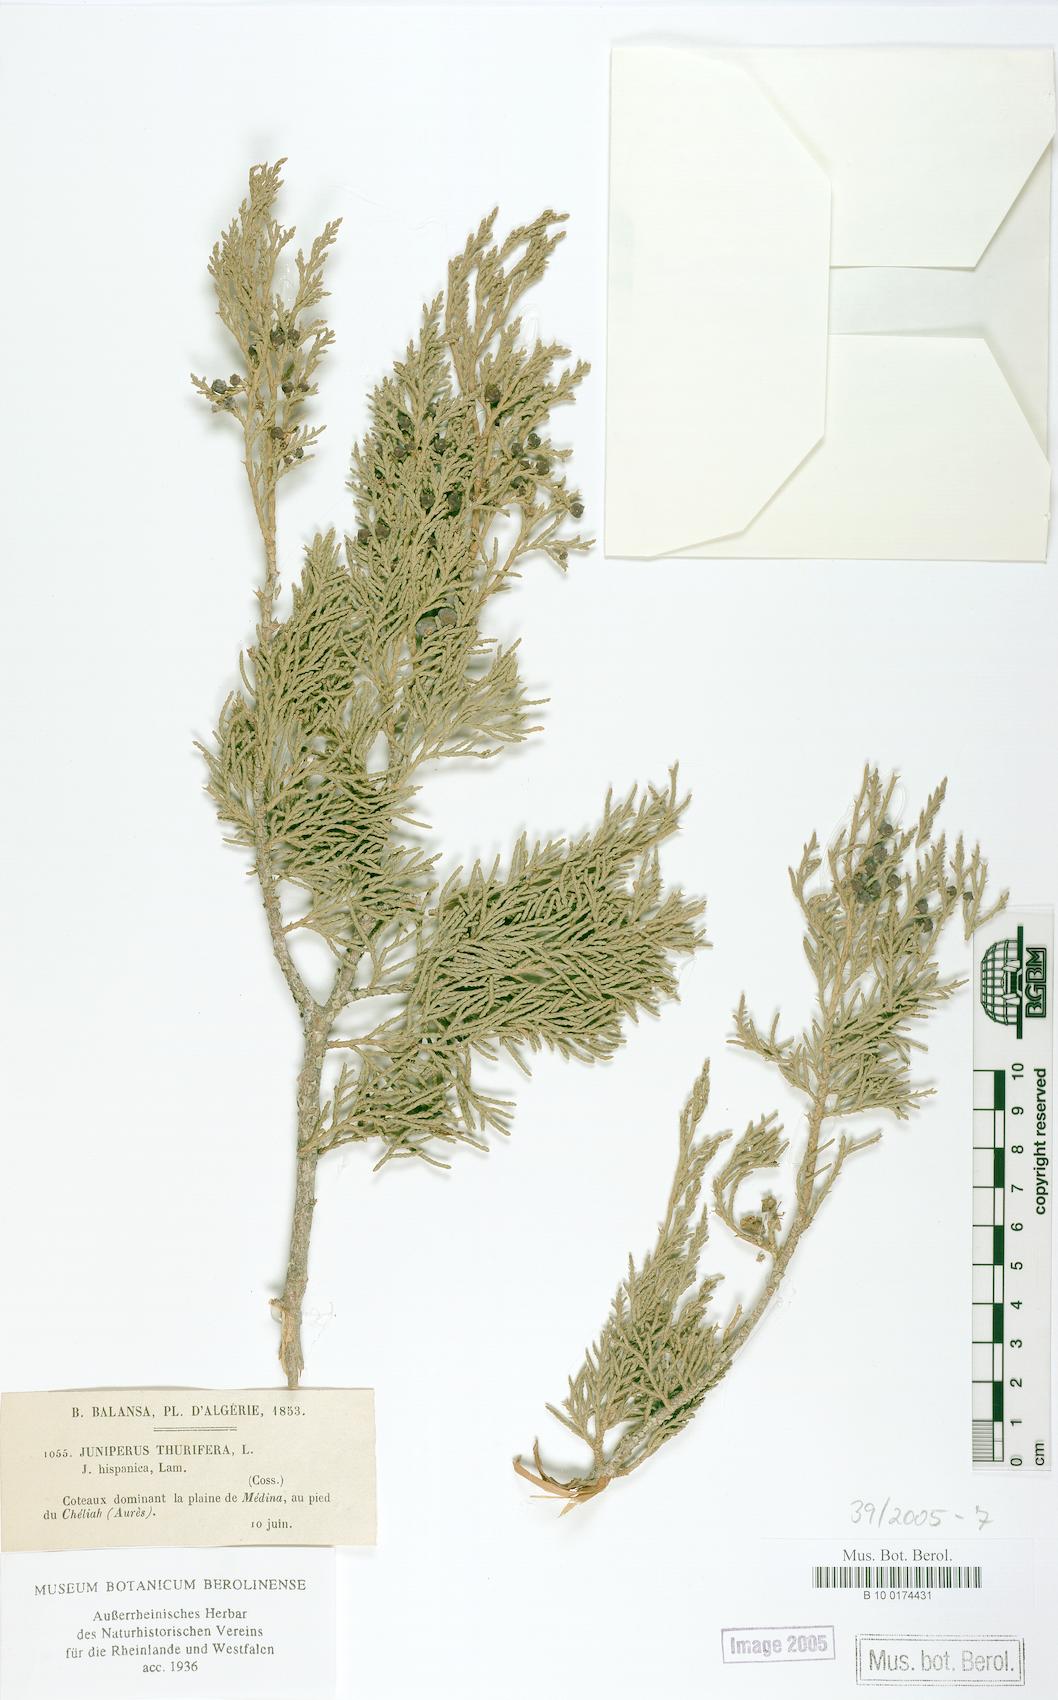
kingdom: Plantae
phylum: Tracheophyta
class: Pinopsida
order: Pinales
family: Cupressaceae
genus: Juniperus
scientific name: Juniperus thurifera
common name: Incense juniper
